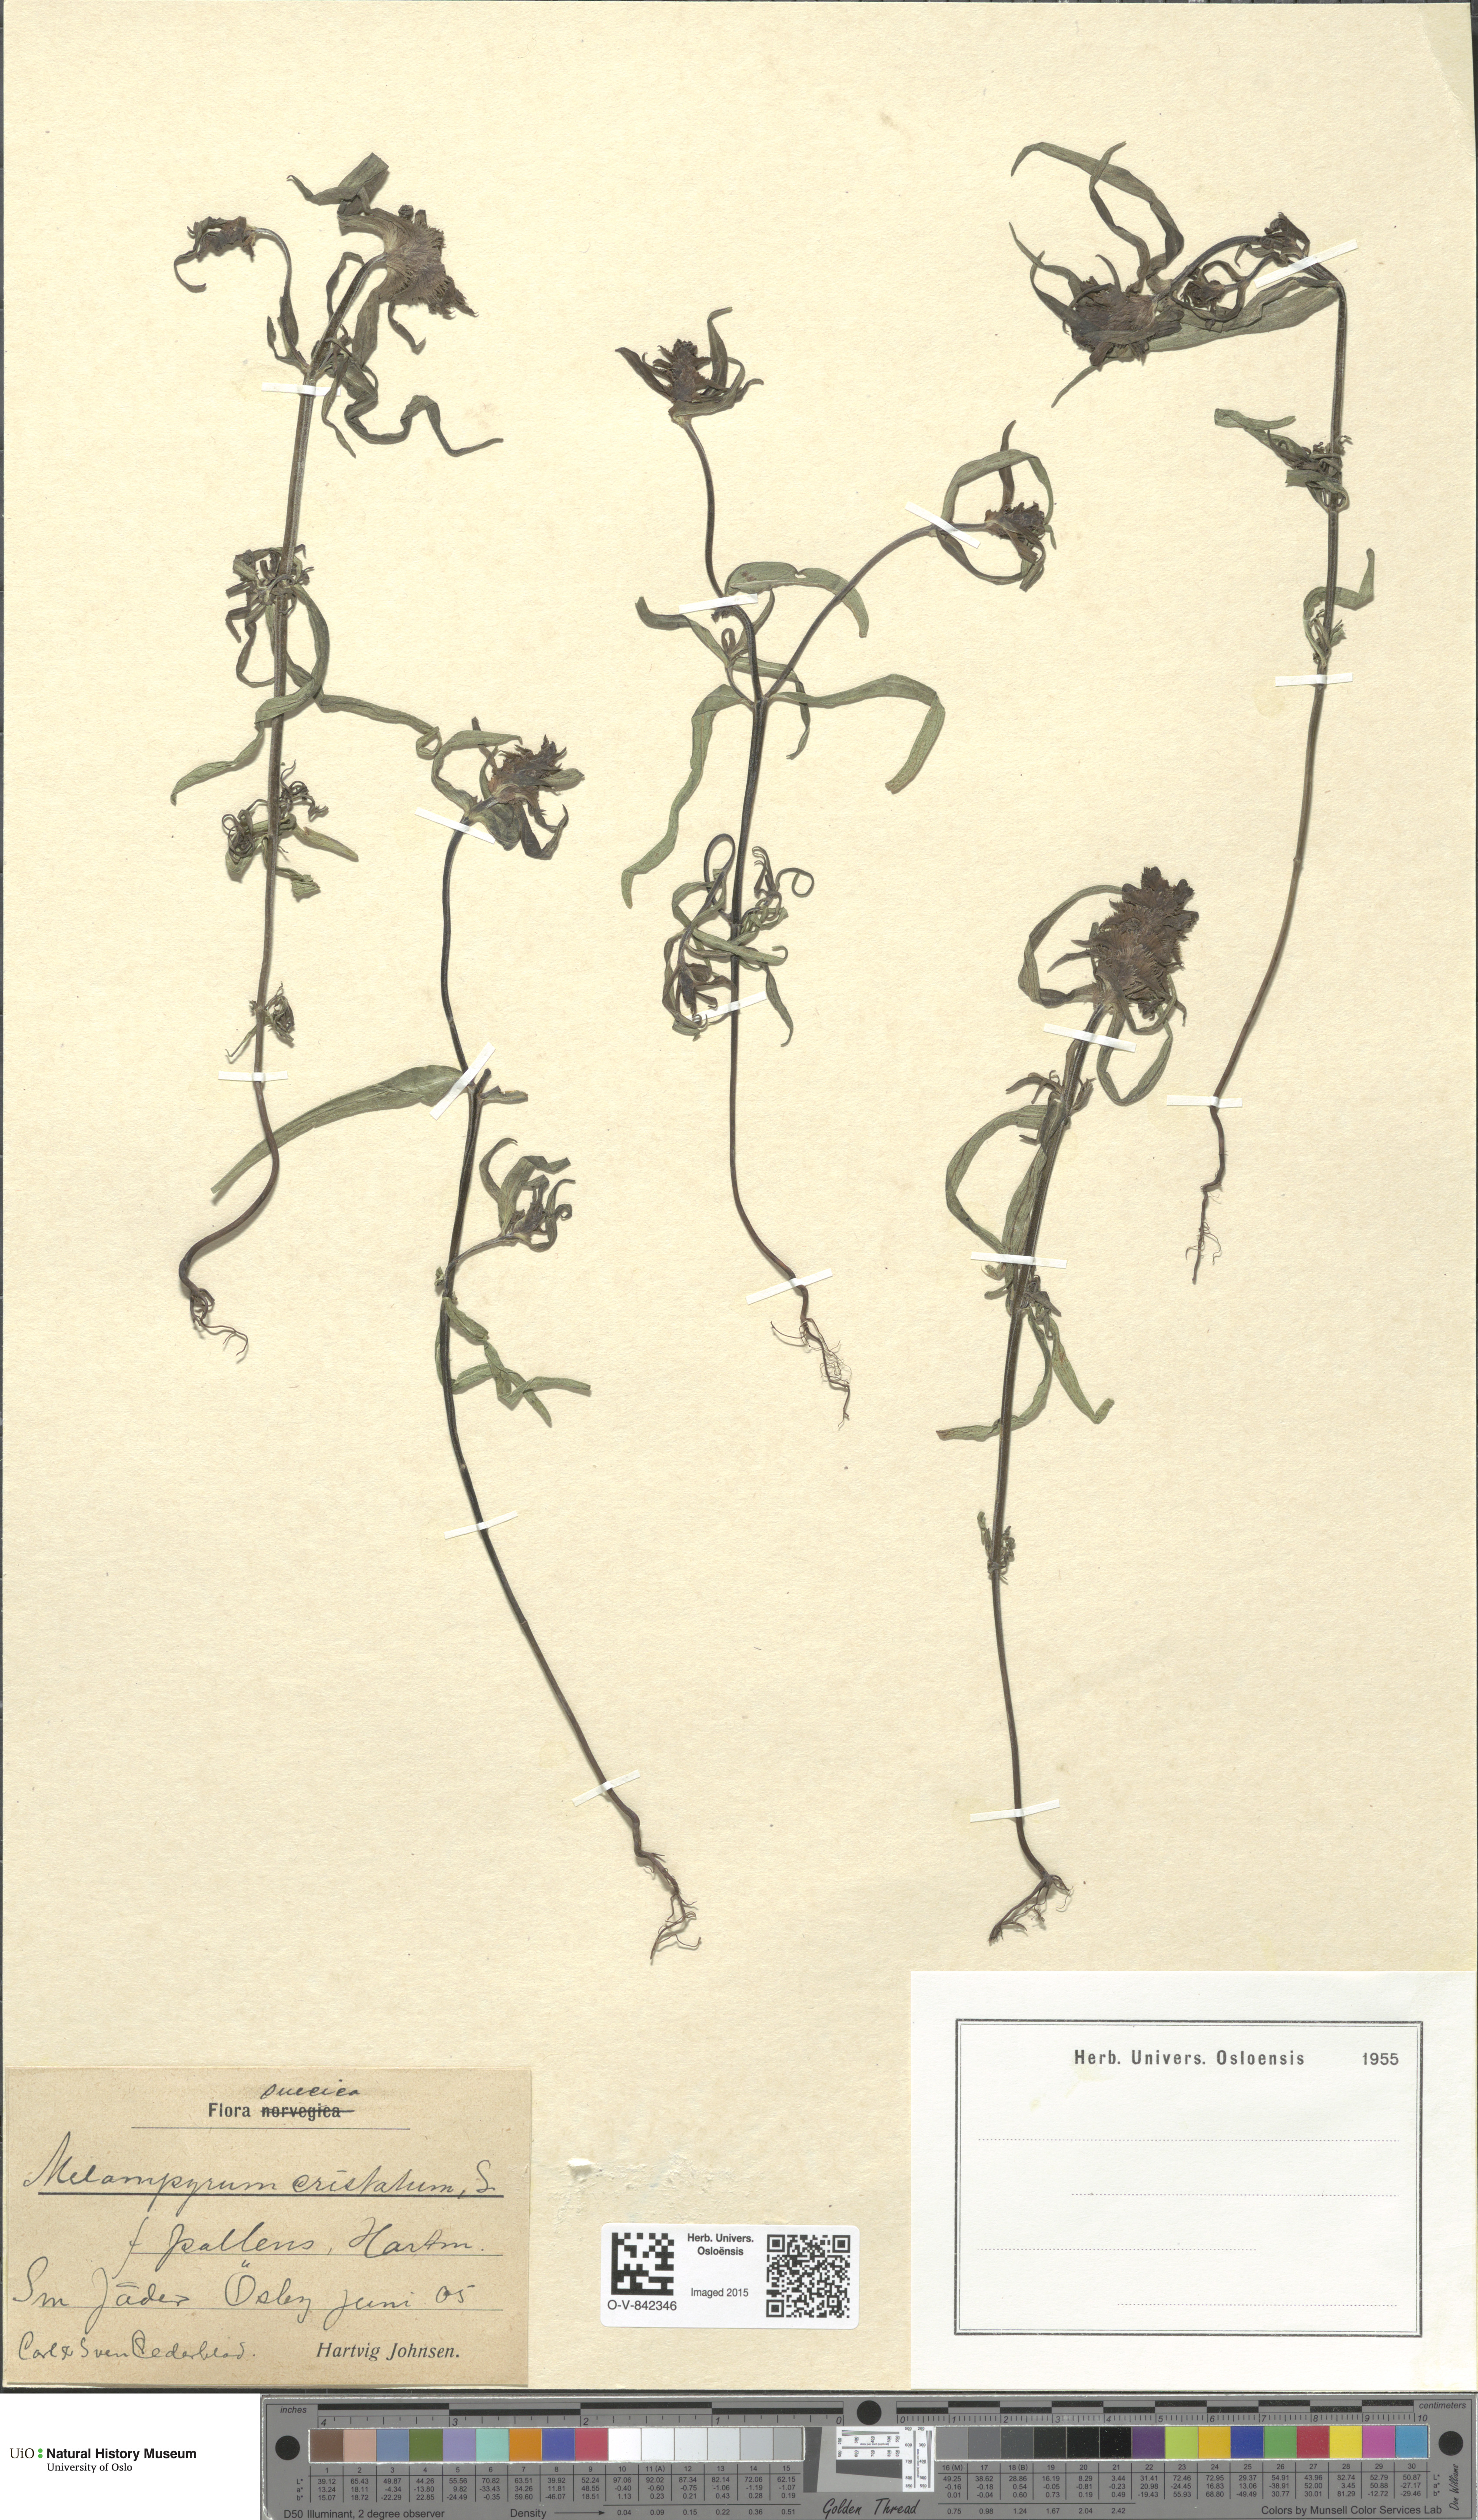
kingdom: Plantae
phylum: Tracheophyta
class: Magnoliopsida
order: Lamiales
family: Orobanchaceae
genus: Melampyrum
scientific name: Melampyrum cristatum
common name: Crested cow-wheat
